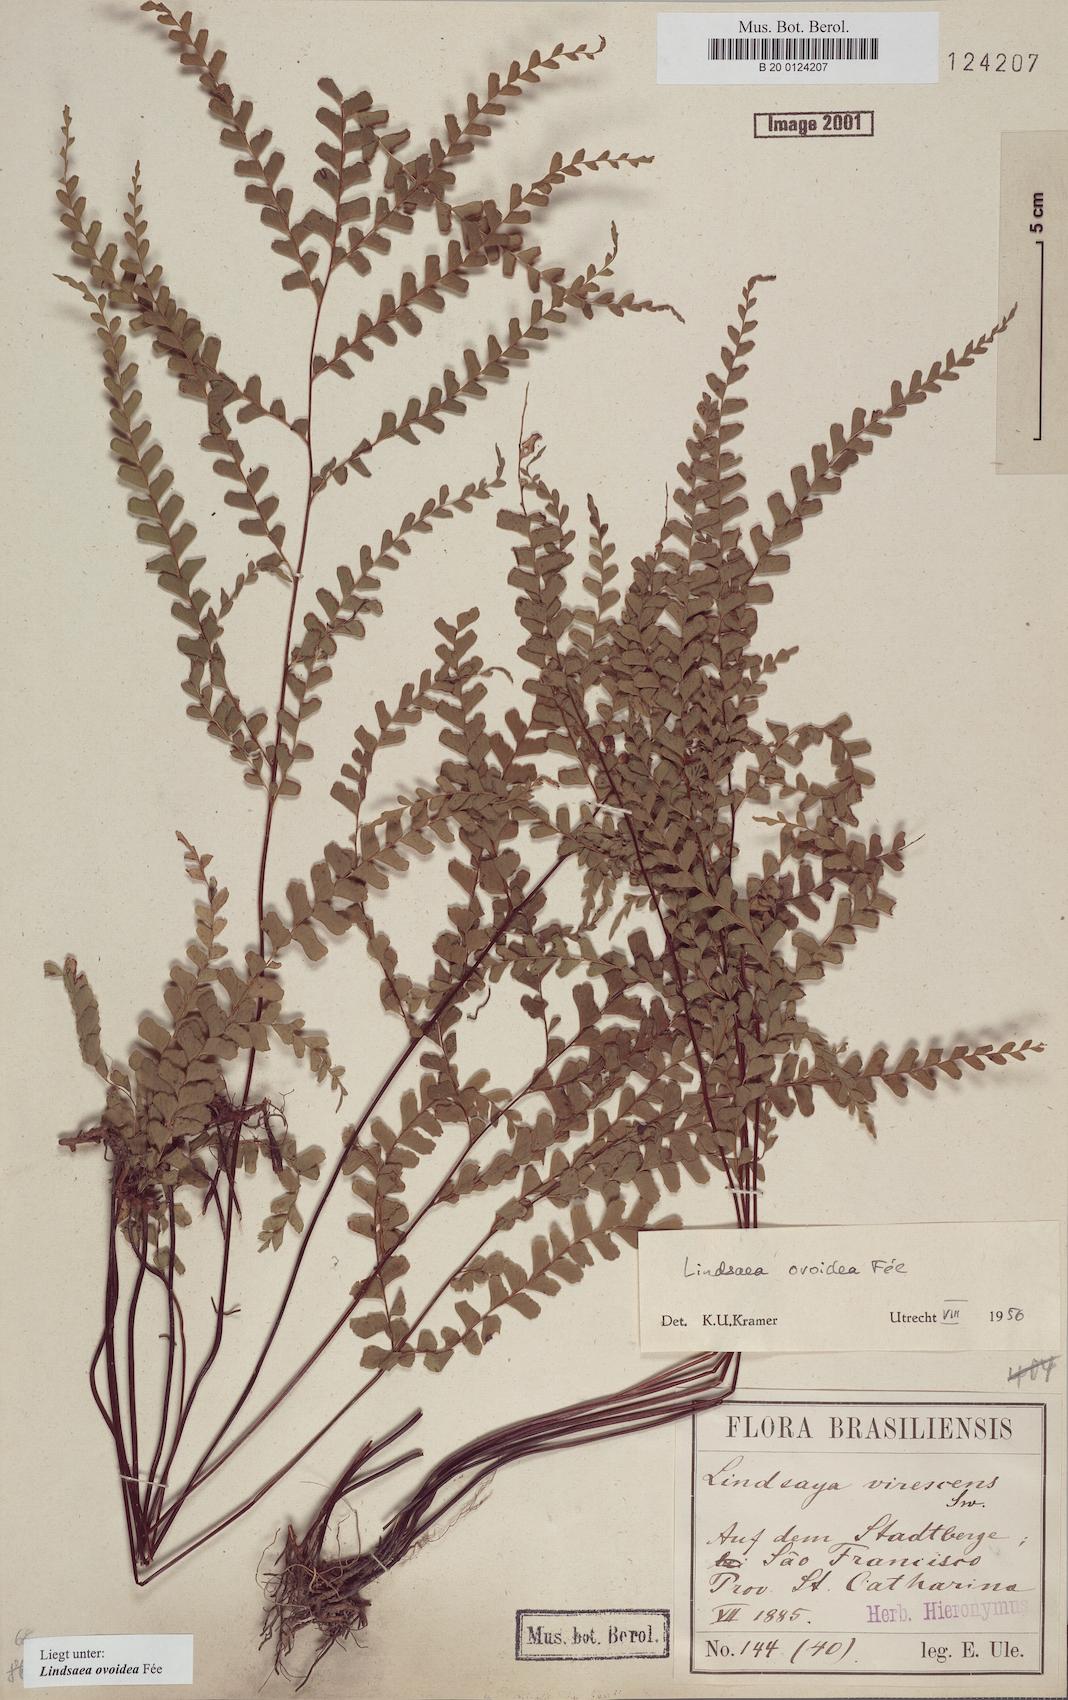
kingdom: Plantae
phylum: Tracheophyta
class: Polypodiopsida
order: Polypodiales
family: Lindsaeaceae
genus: Lindsaea
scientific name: Lindsaea ovoidea
